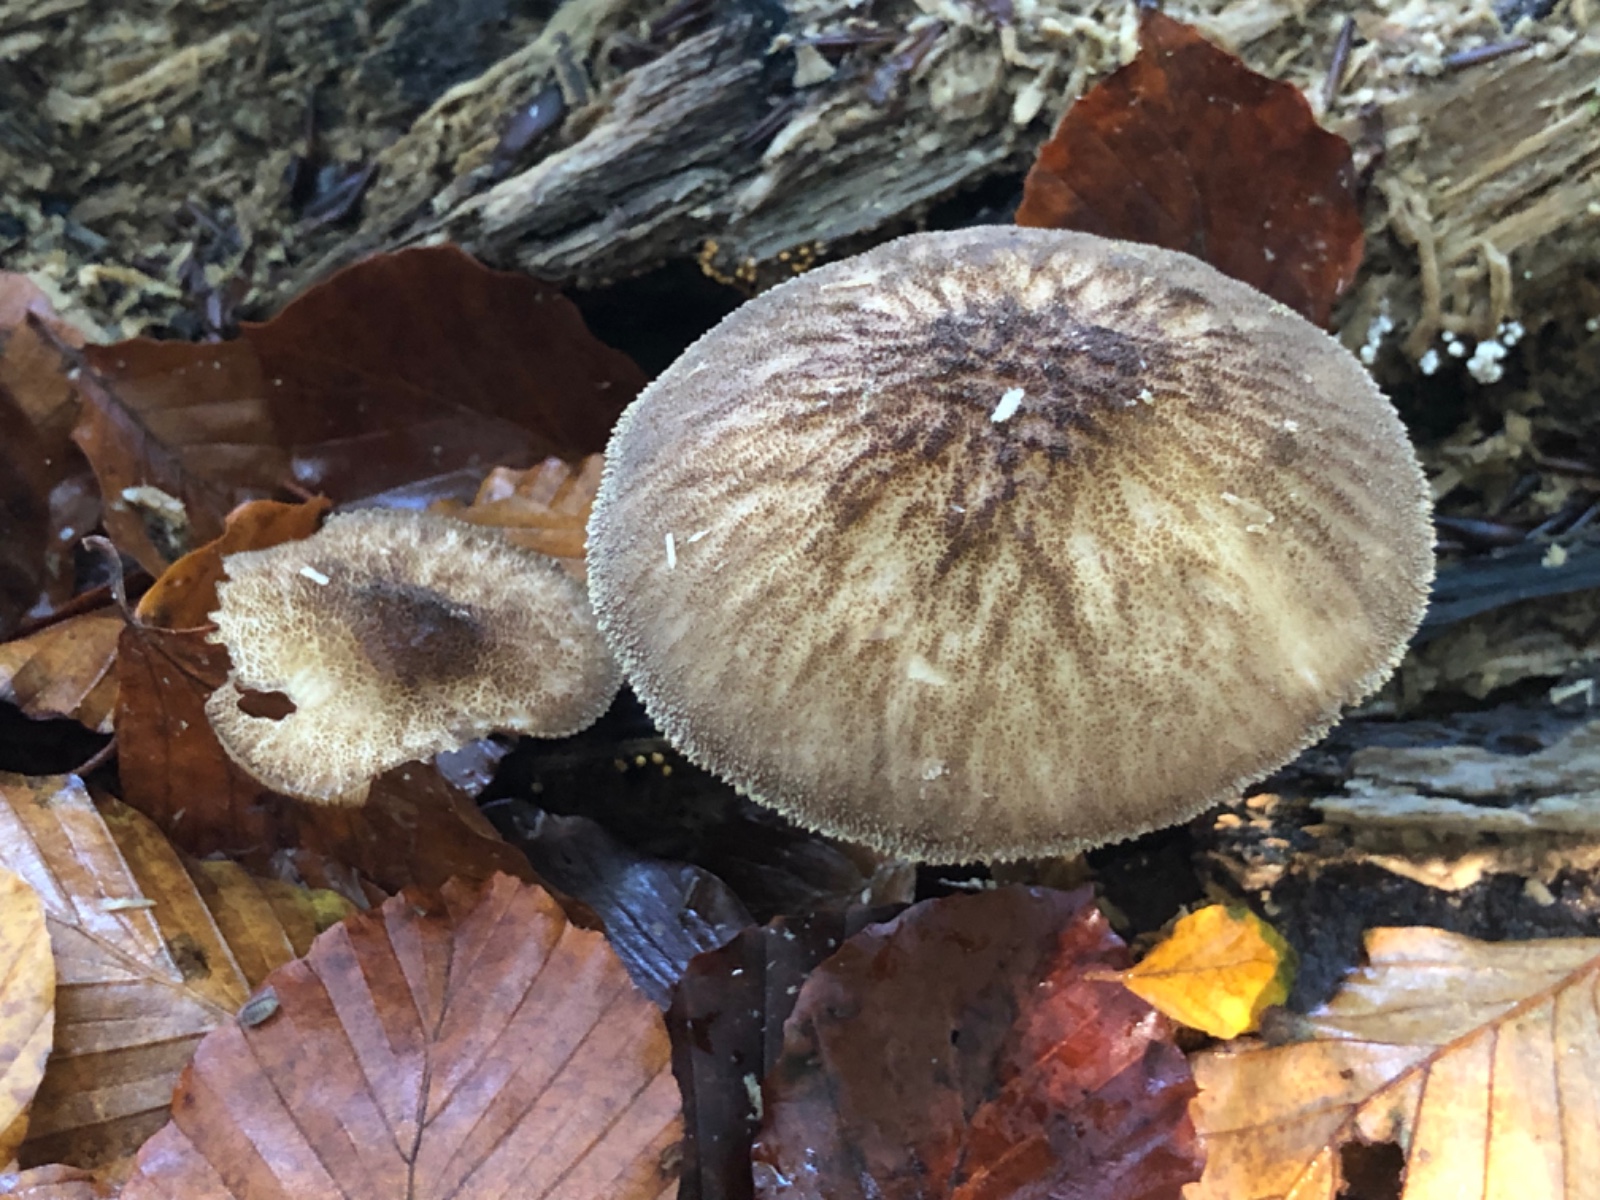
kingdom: Fungi
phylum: Basidiomycota
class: Agaricomycetes
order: Agaricales
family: Pluteaceae
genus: Pluteus
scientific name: Pluteus umbrosus
